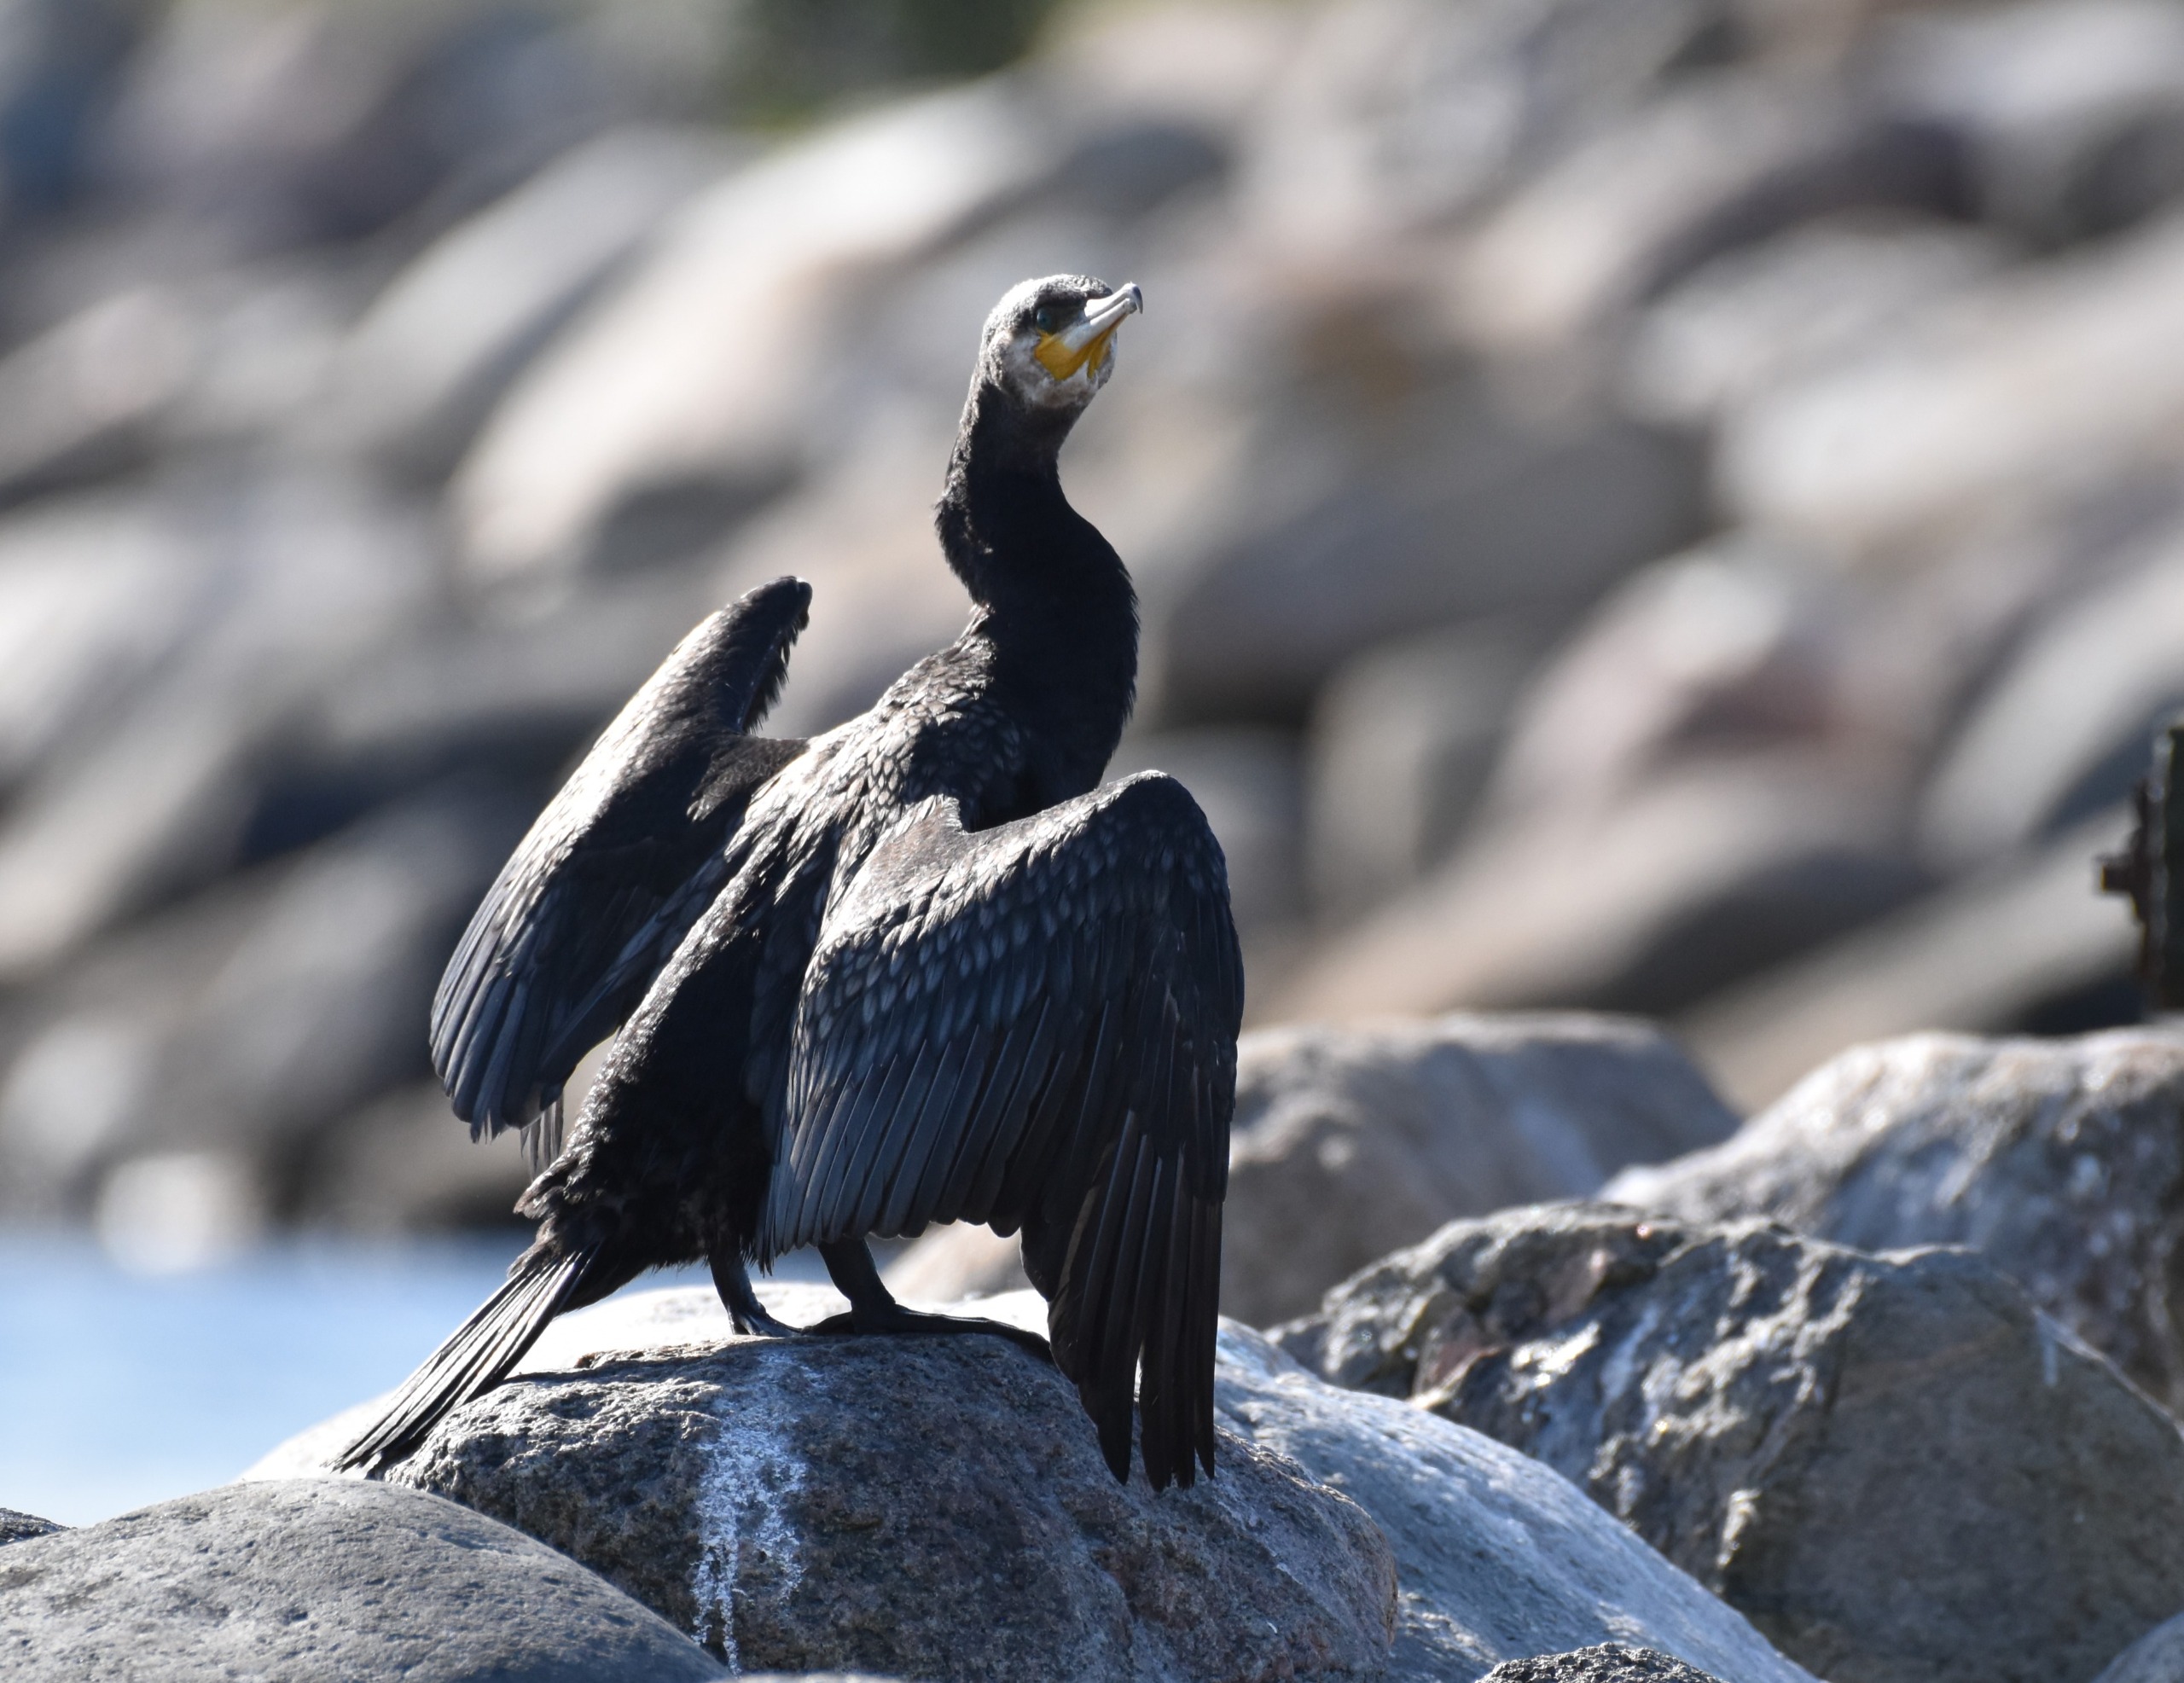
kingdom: Animalia
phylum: Chordata
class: Aves
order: Suliformes
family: Phalacrocoracidae
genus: Phalacrocorax
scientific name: Phalacrocorax carbo
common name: Skarv
